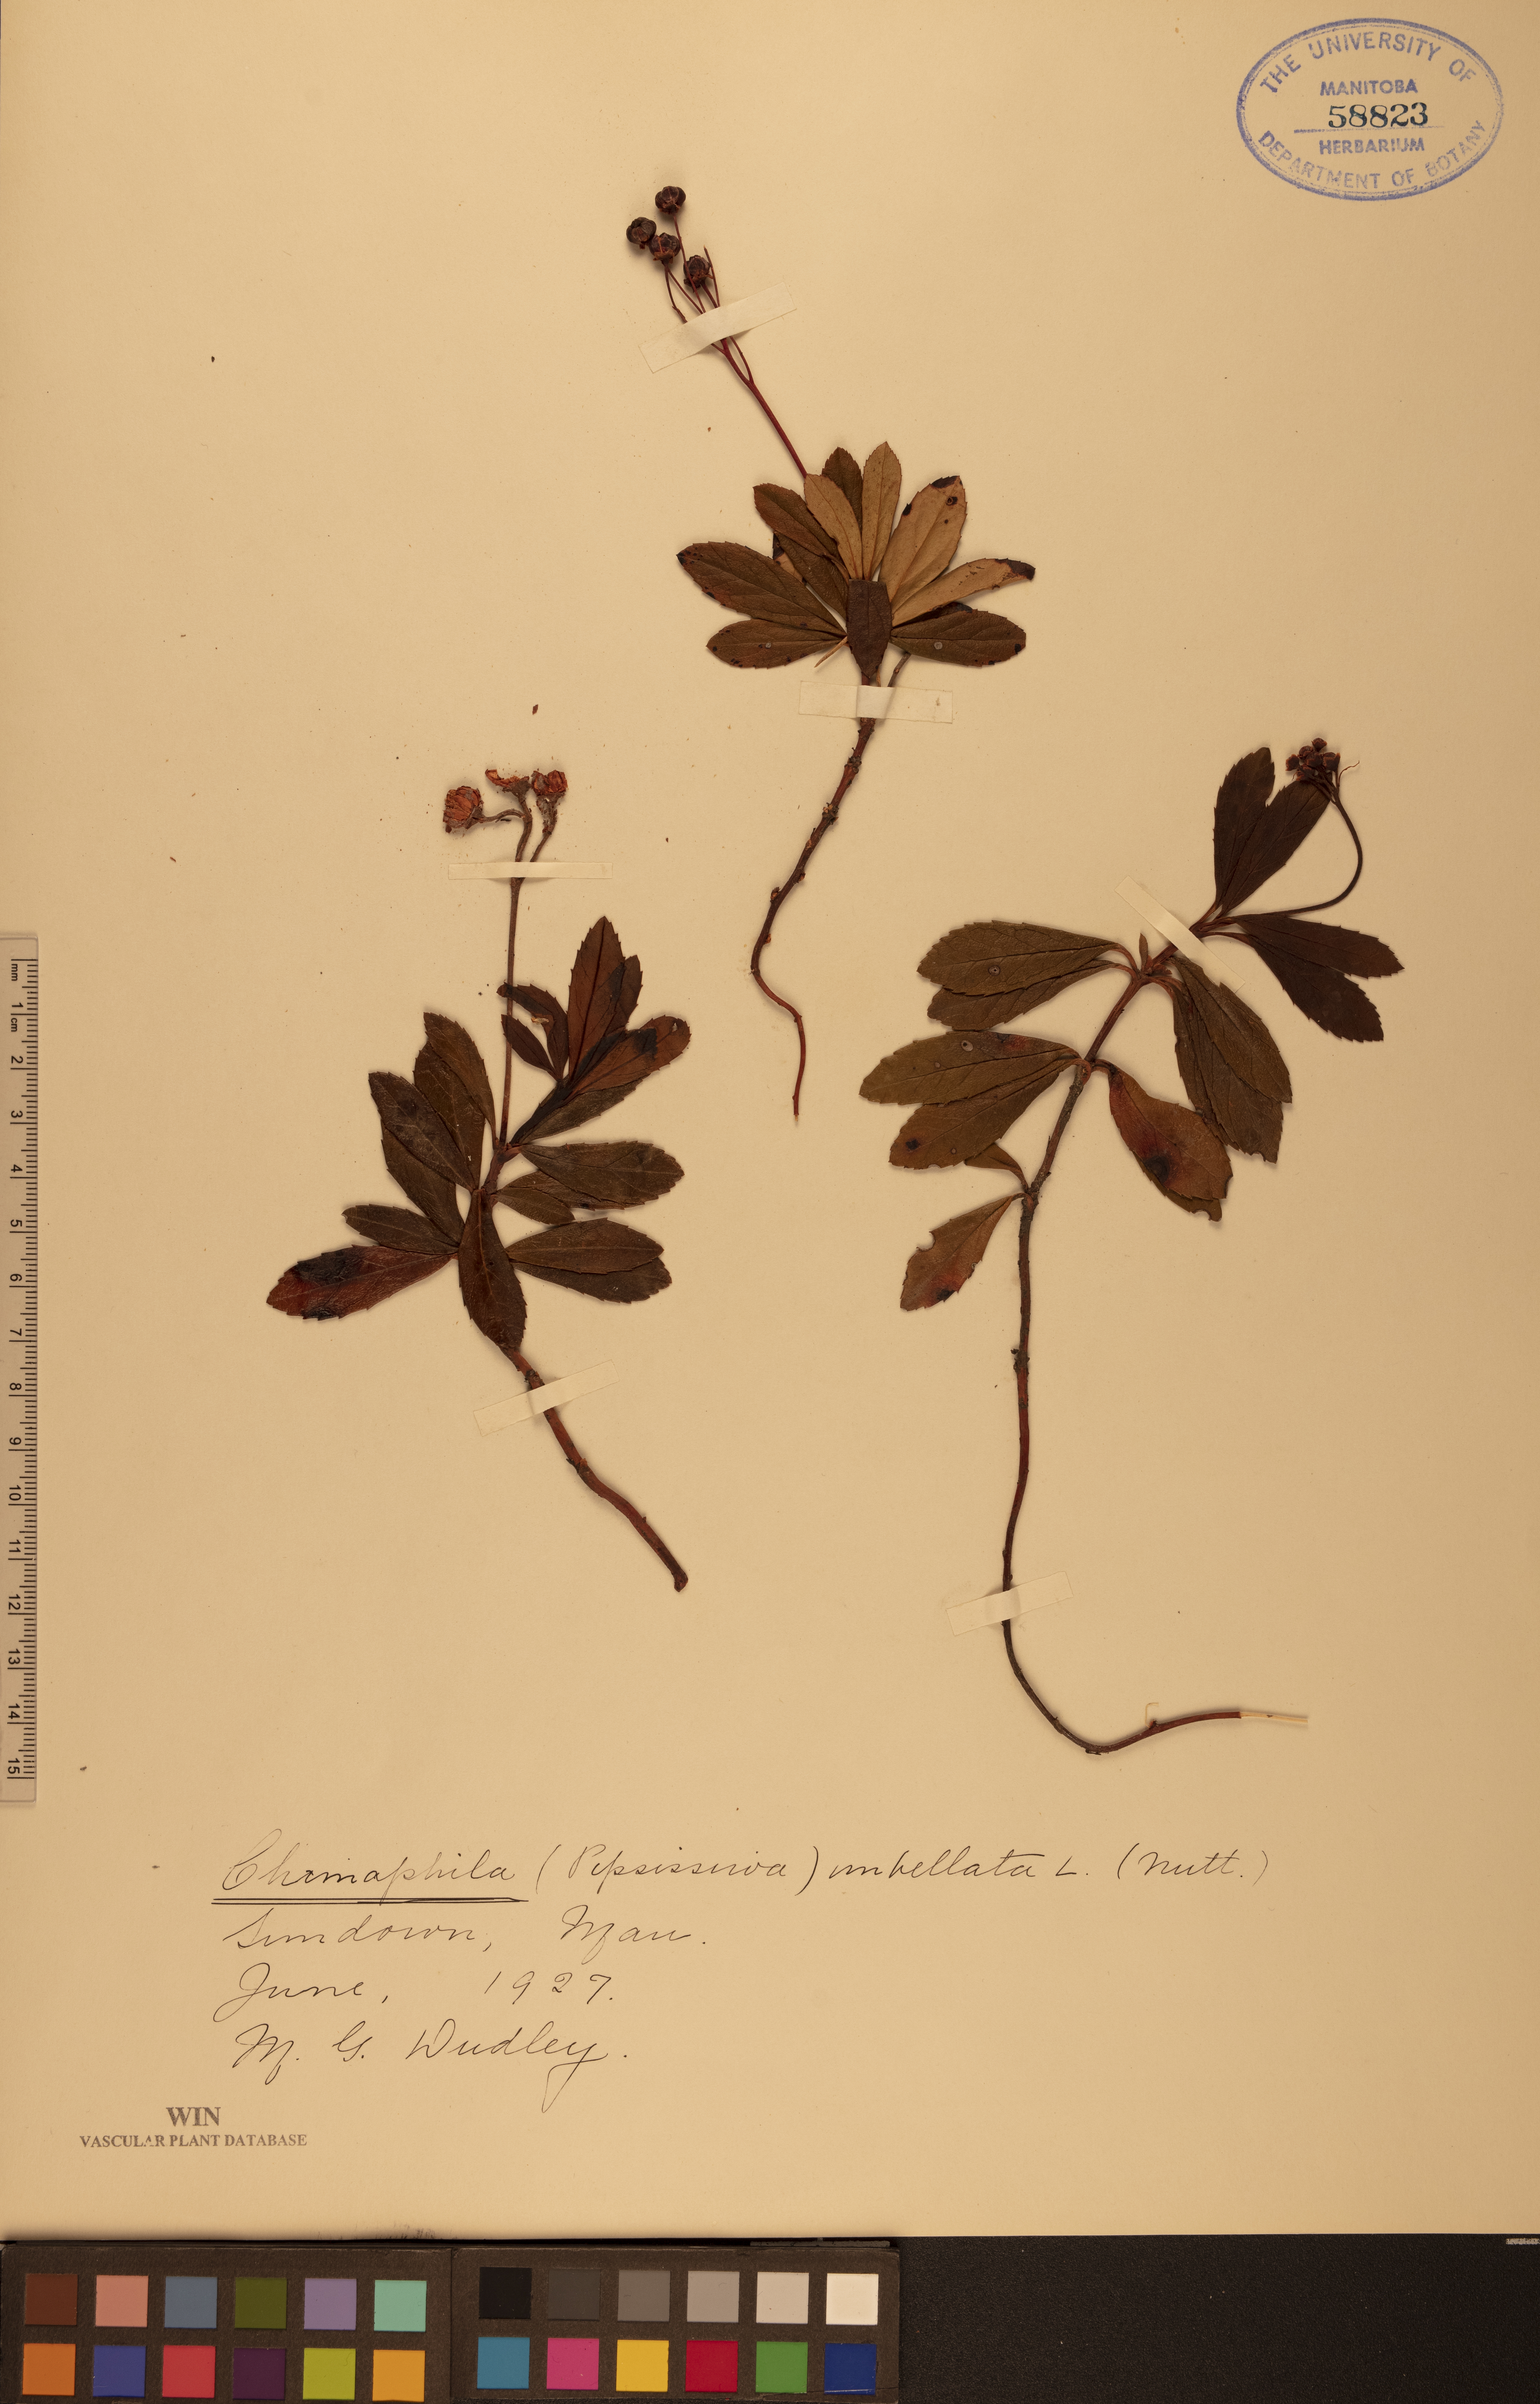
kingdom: Plantae
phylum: Tracheophyta
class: Magnoliopsida
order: Ericales
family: Ericaceae
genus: Chimaphila
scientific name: Chimaphila umbellata
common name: Pipsissewa
